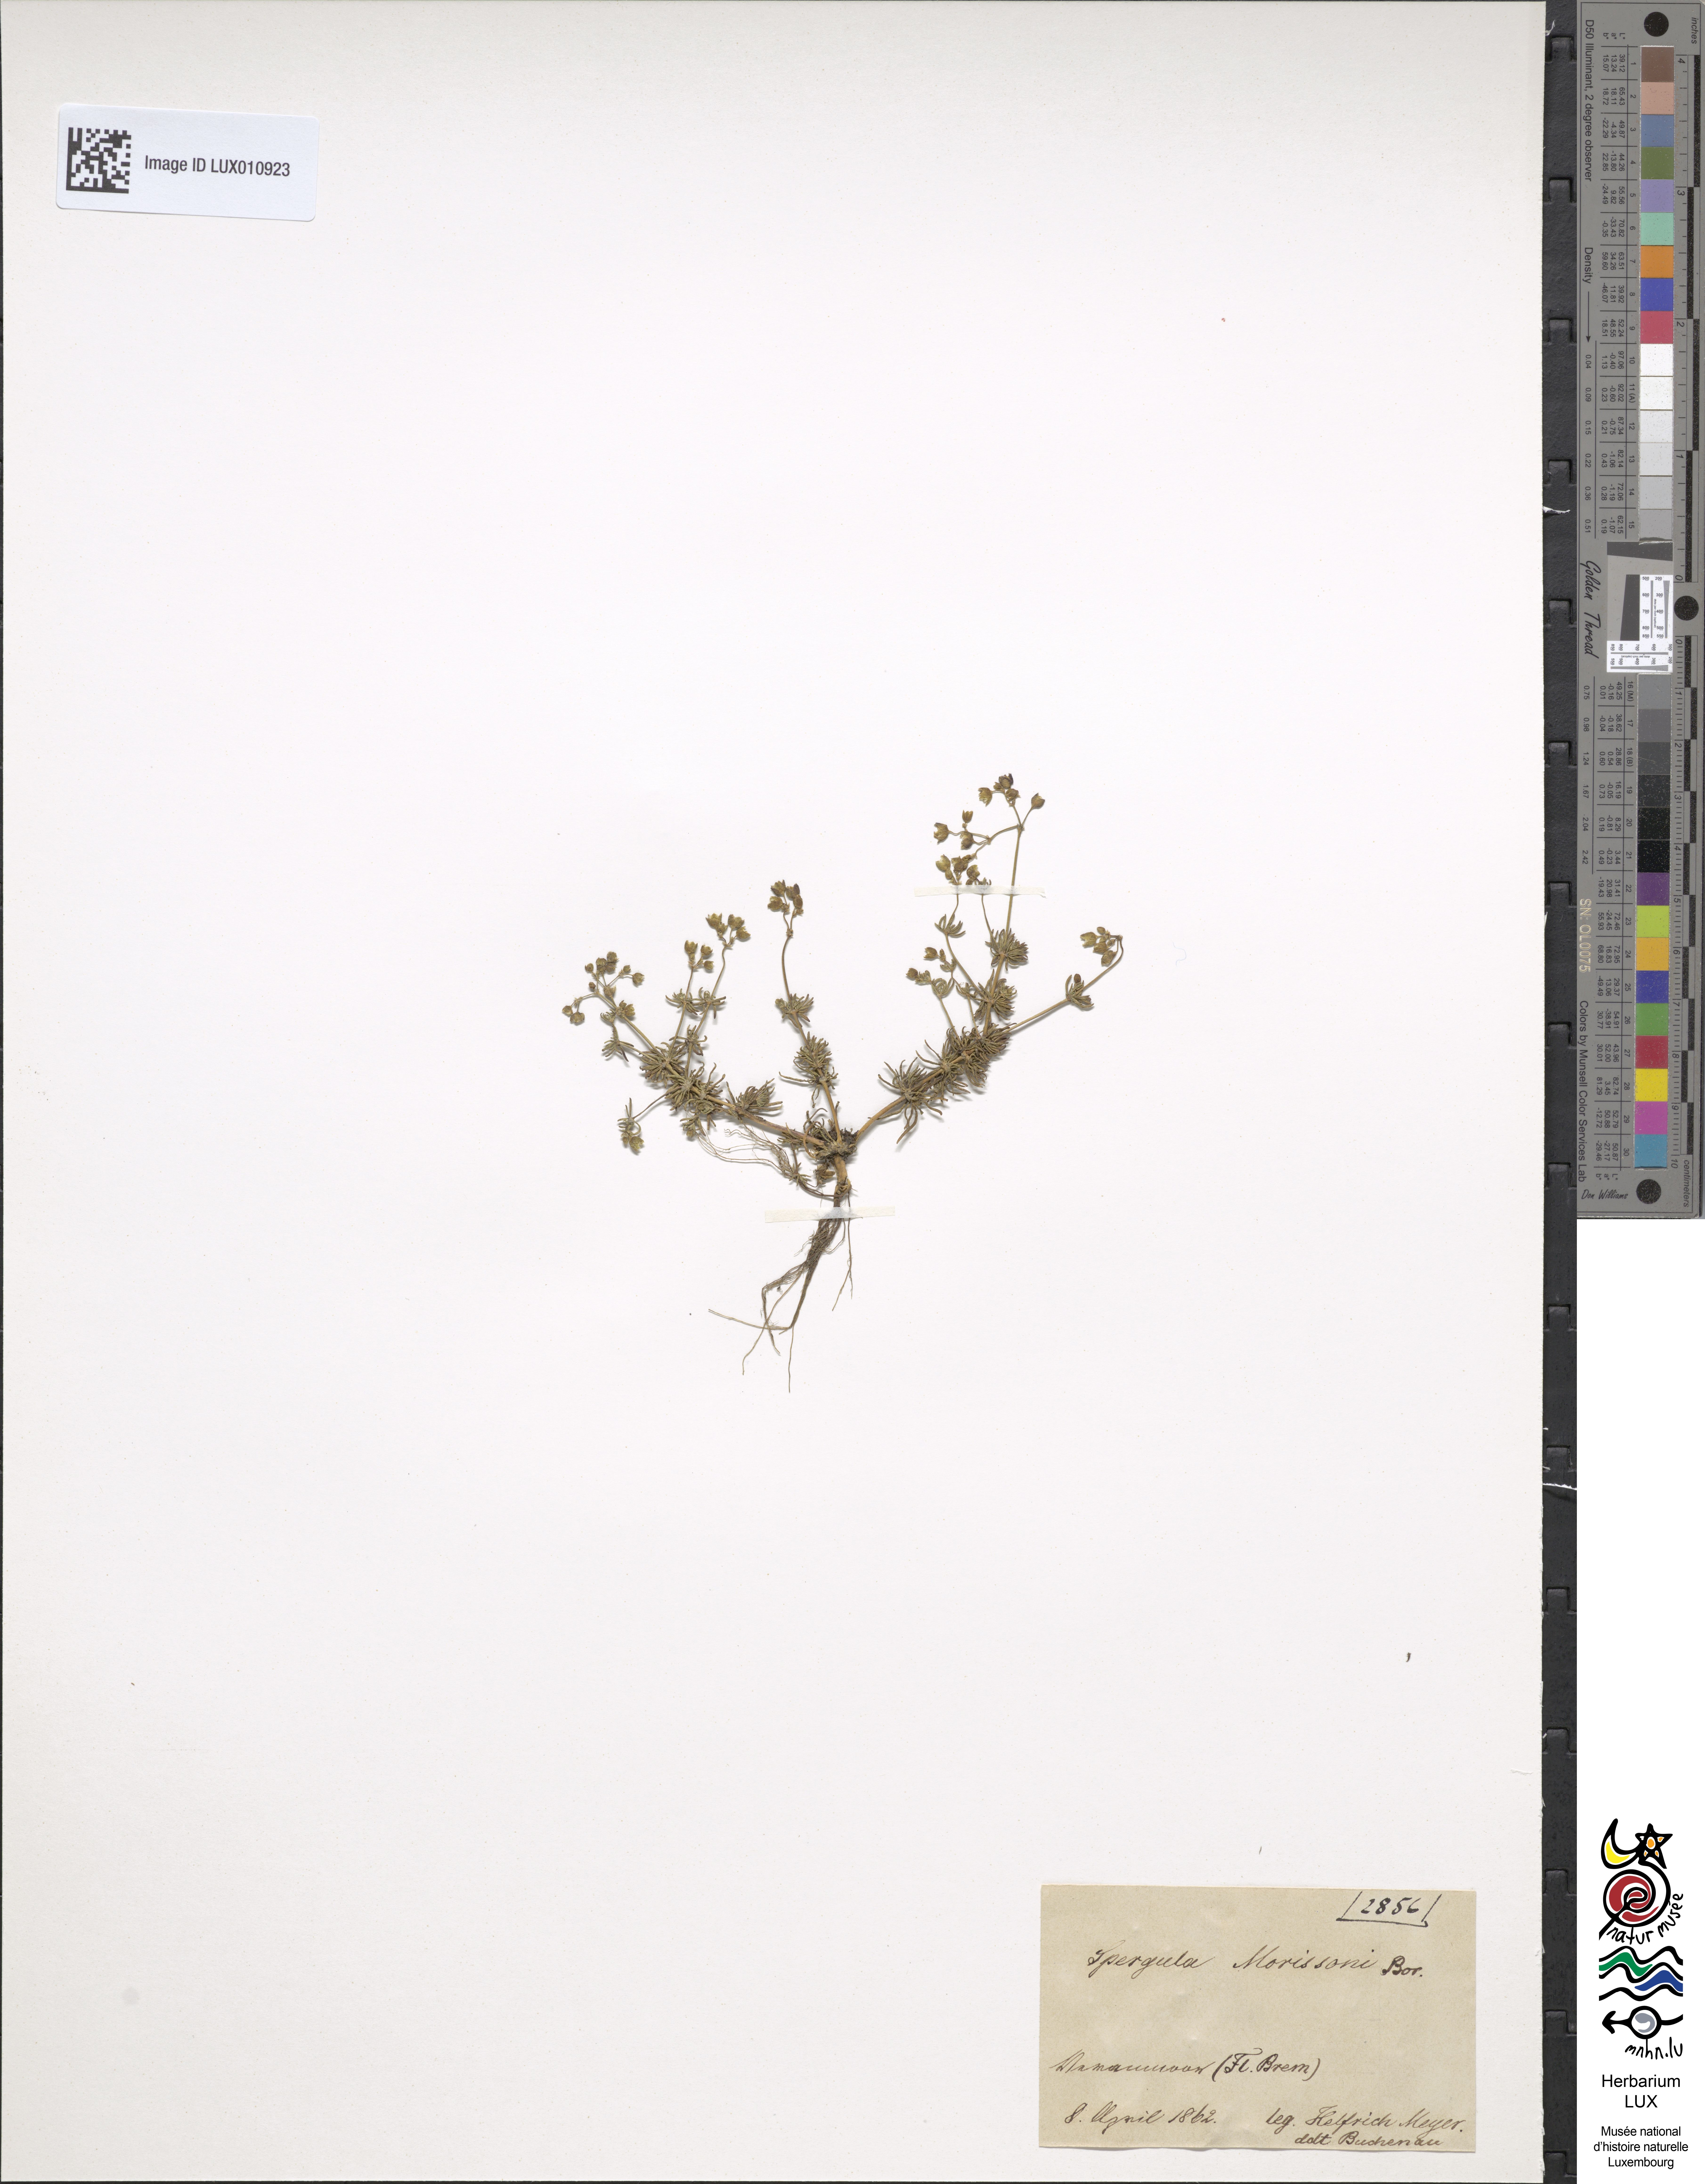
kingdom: Plantae
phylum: Tracheophyta
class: Magnoliopsida
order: Caryophyllales
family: Caryophyllaceae
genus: Spergula
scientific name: Spergula morisonii
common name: Pearlwort spurrey
